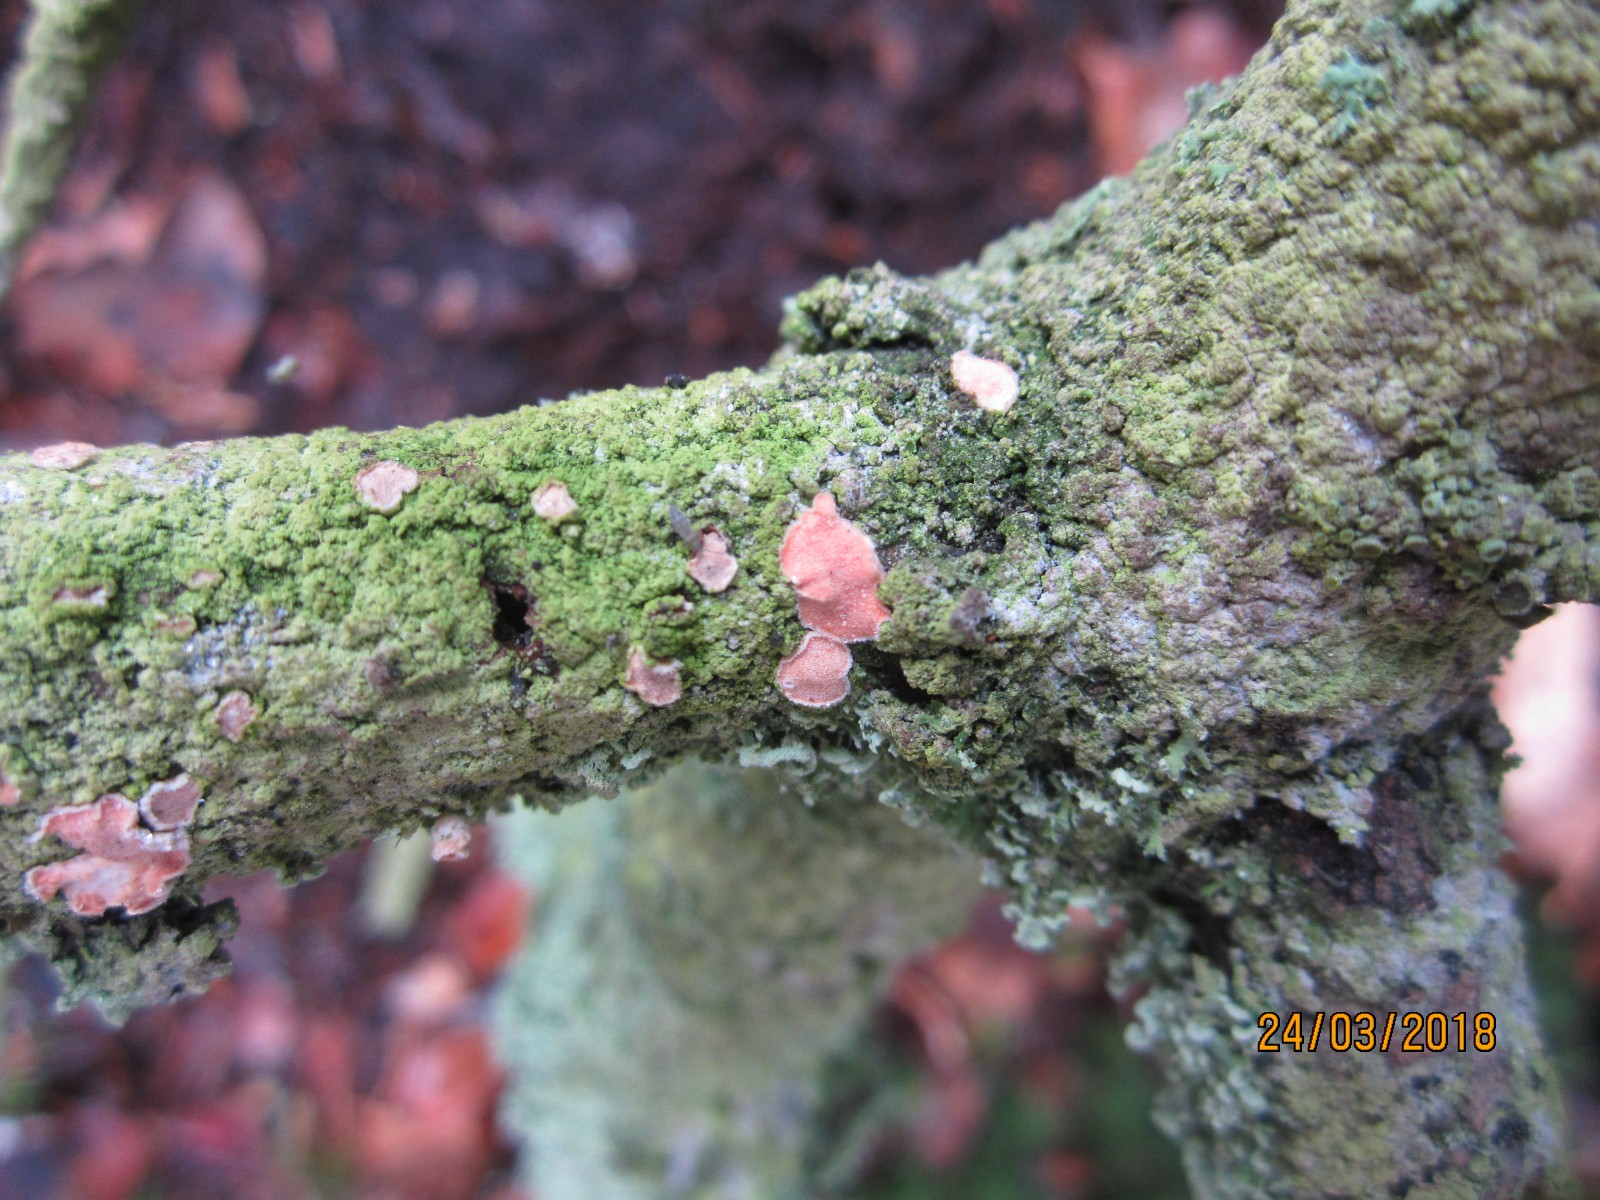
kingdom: Fungi
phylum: Basidiomycota
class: Agaricomycetes
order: Russulales
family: Stereaceae
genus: Aleurodiscus
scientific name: Aleurodiscus amorphus
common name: orange skiveskorpe
